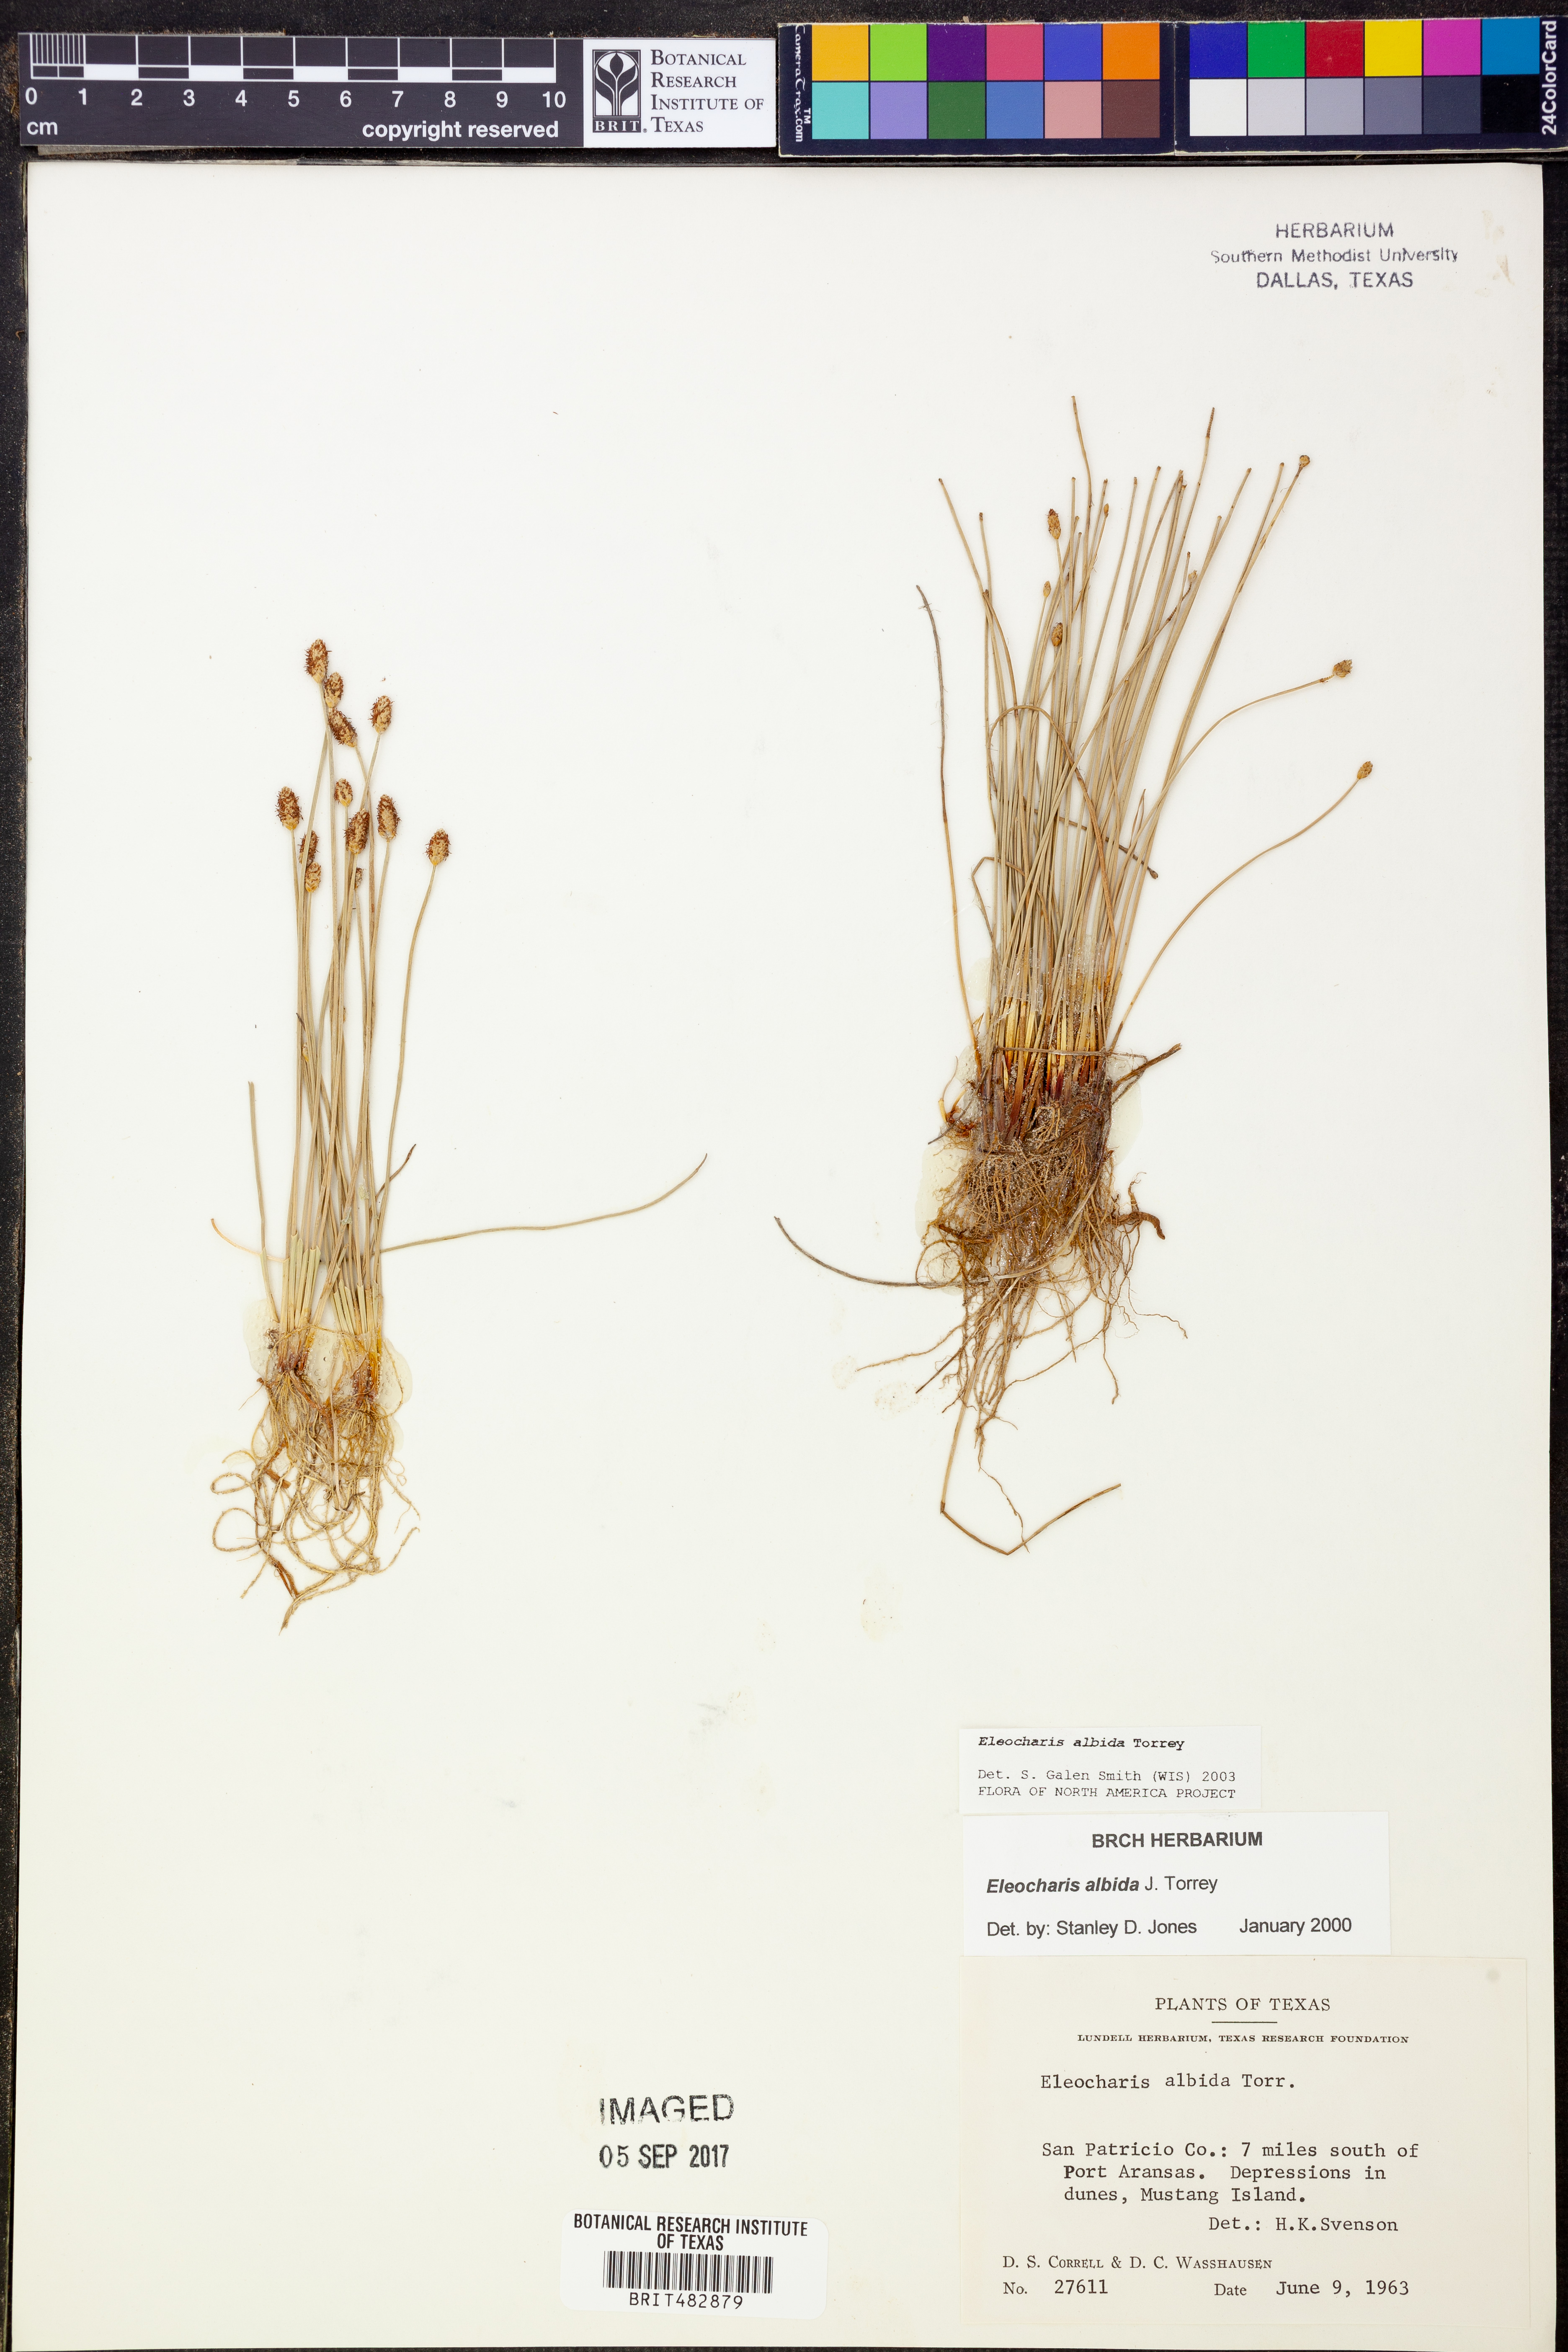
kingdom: Plantae
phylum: Tracheophyta
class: Liliopsida
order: Poales
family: Cyperaceae
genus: Eleocharis
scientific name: Eleocharis albida
